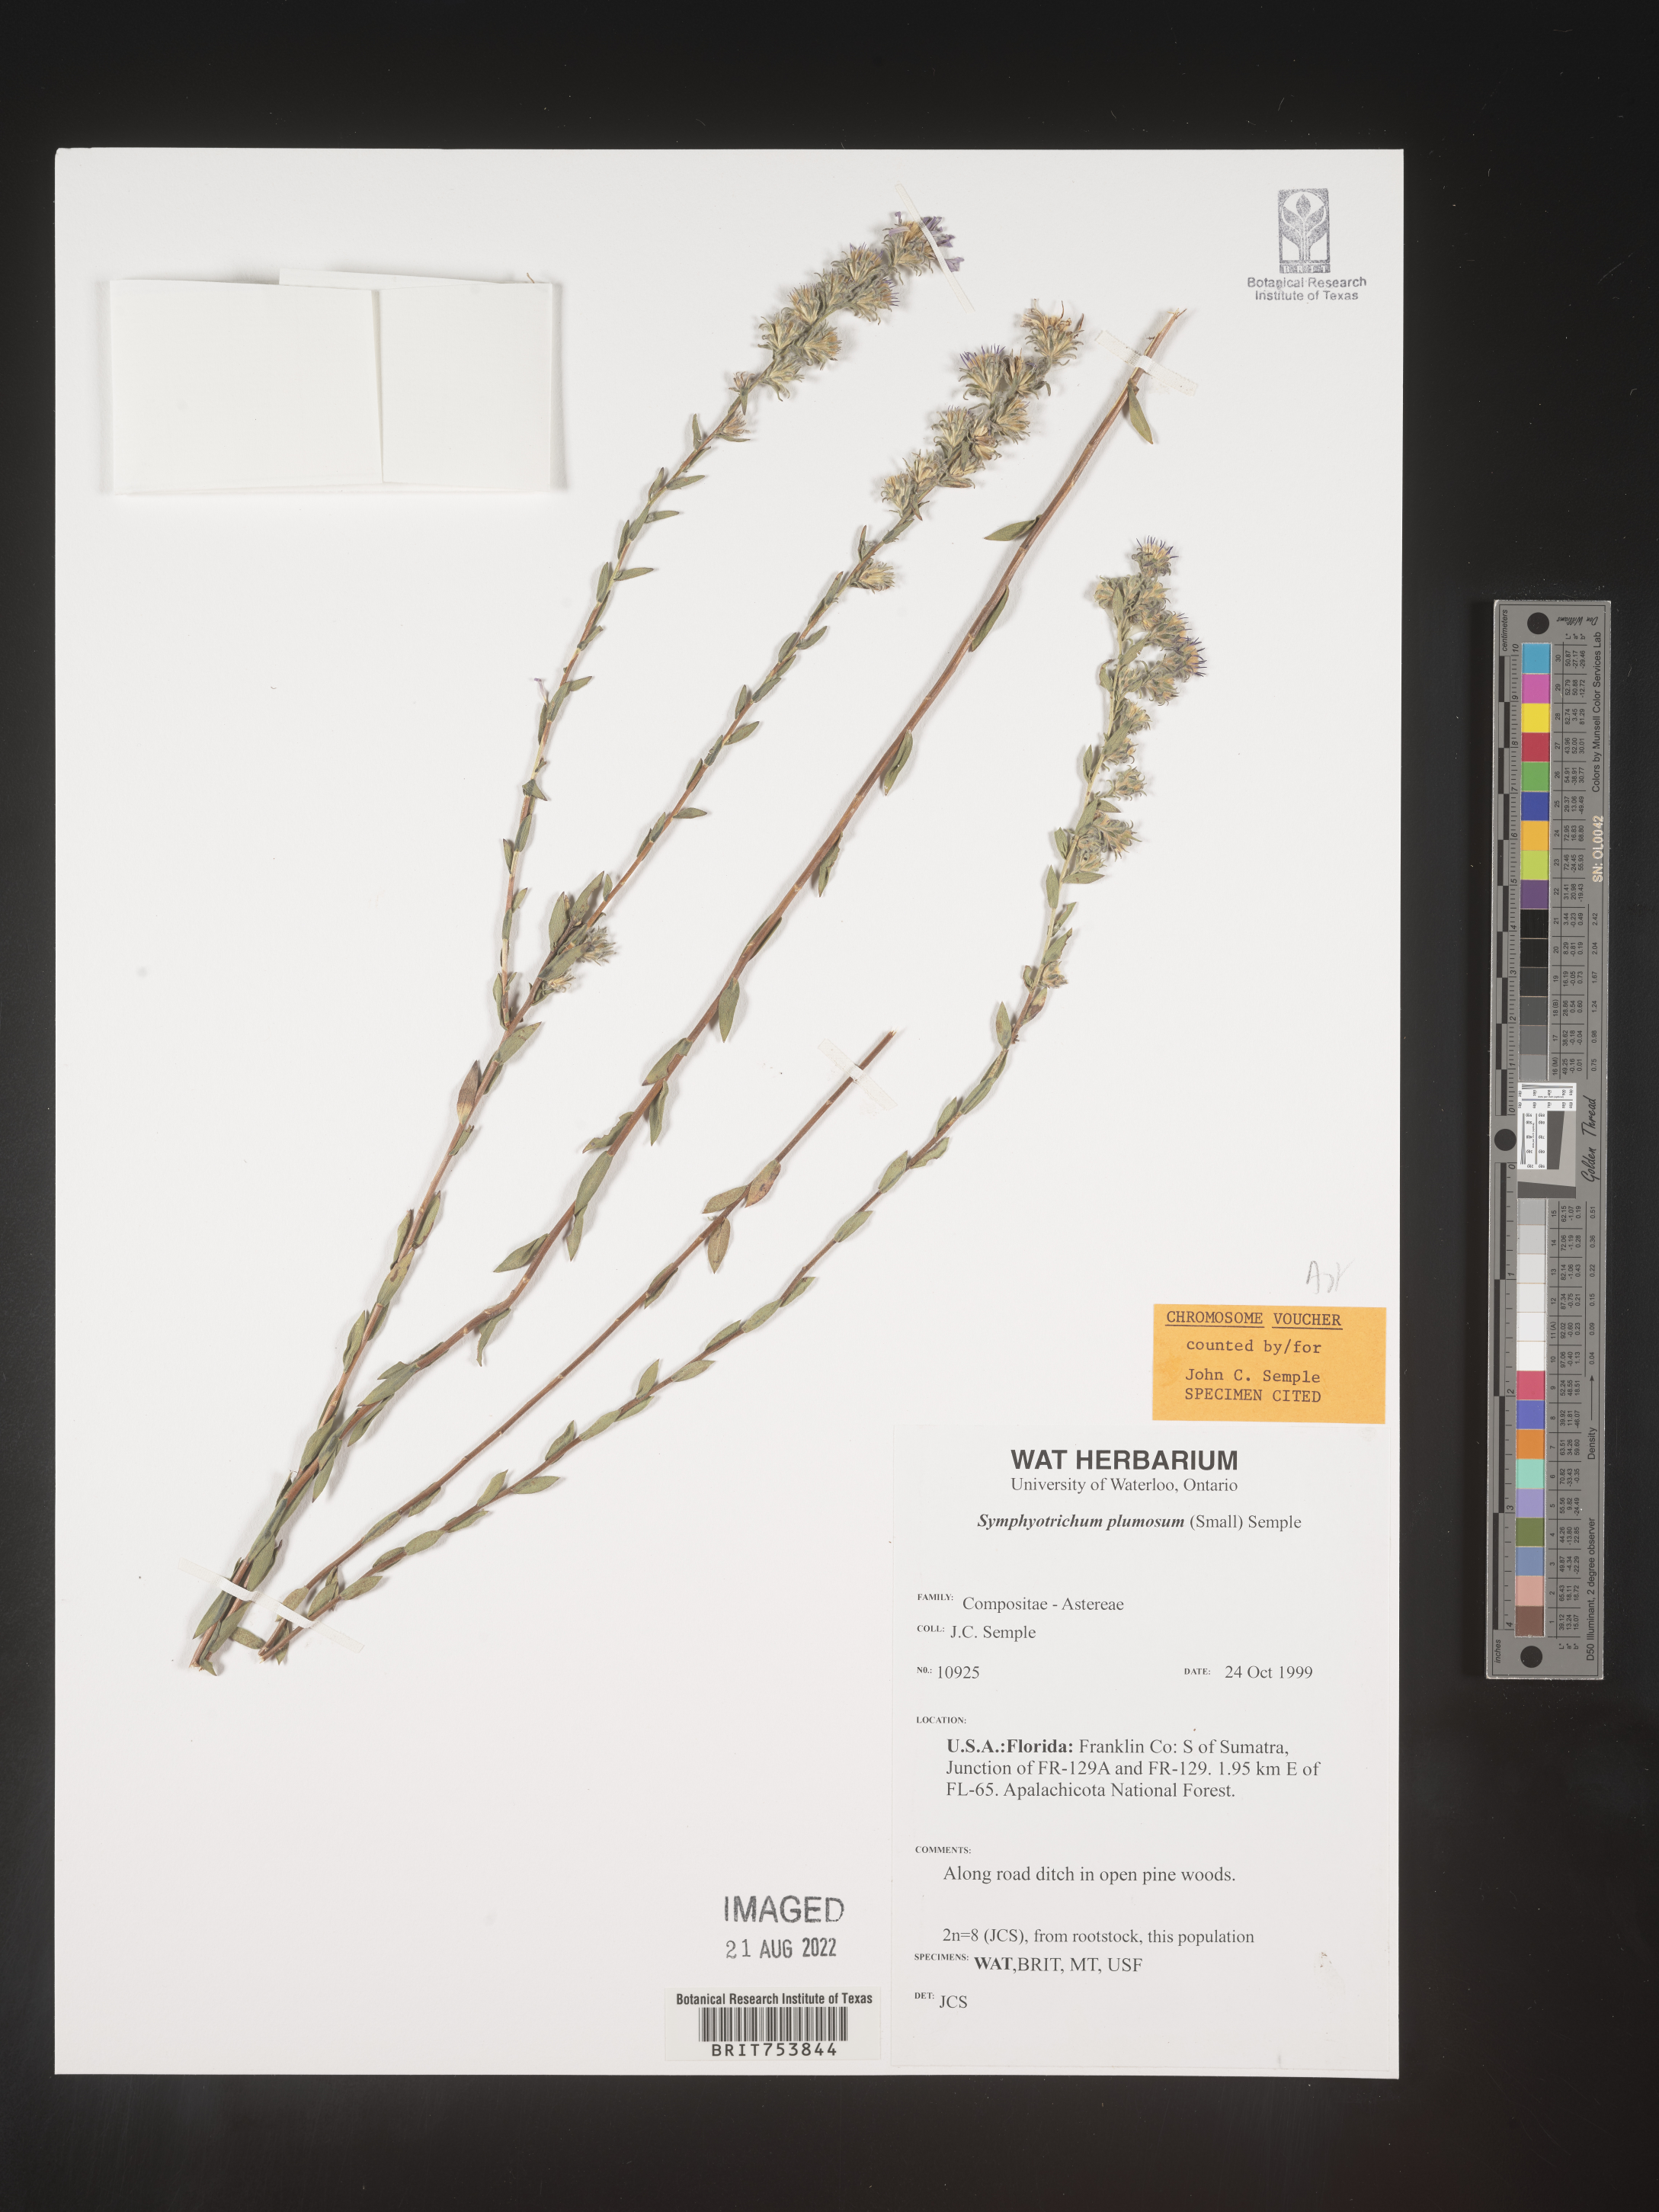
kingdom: Plantae
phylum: Tracheophyta
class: Magnoliopsida
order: Asterales
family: Asteraceae
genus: Symphyotrichum
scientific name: Symphyotrichum plumosum
